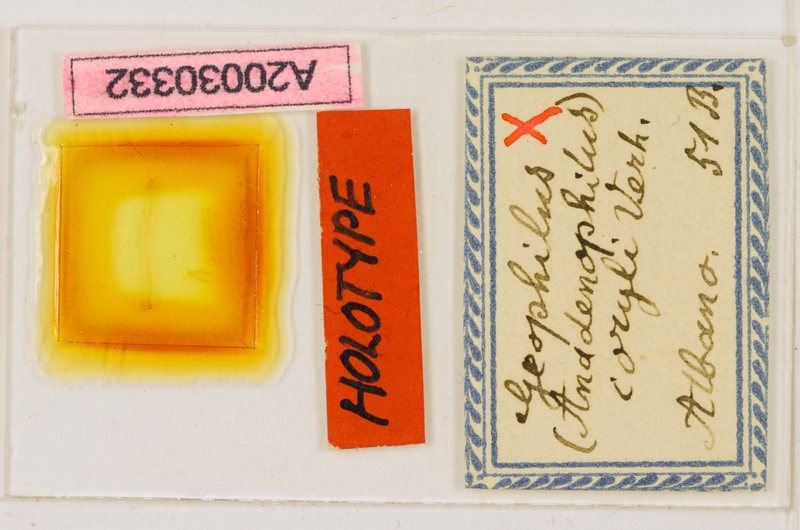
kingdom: Animalia
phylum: Arthropoda
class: Chilopoda
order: Geophilomorpha
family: Geophilidae
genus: Geophilus
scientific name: Geophilus carpophagus
